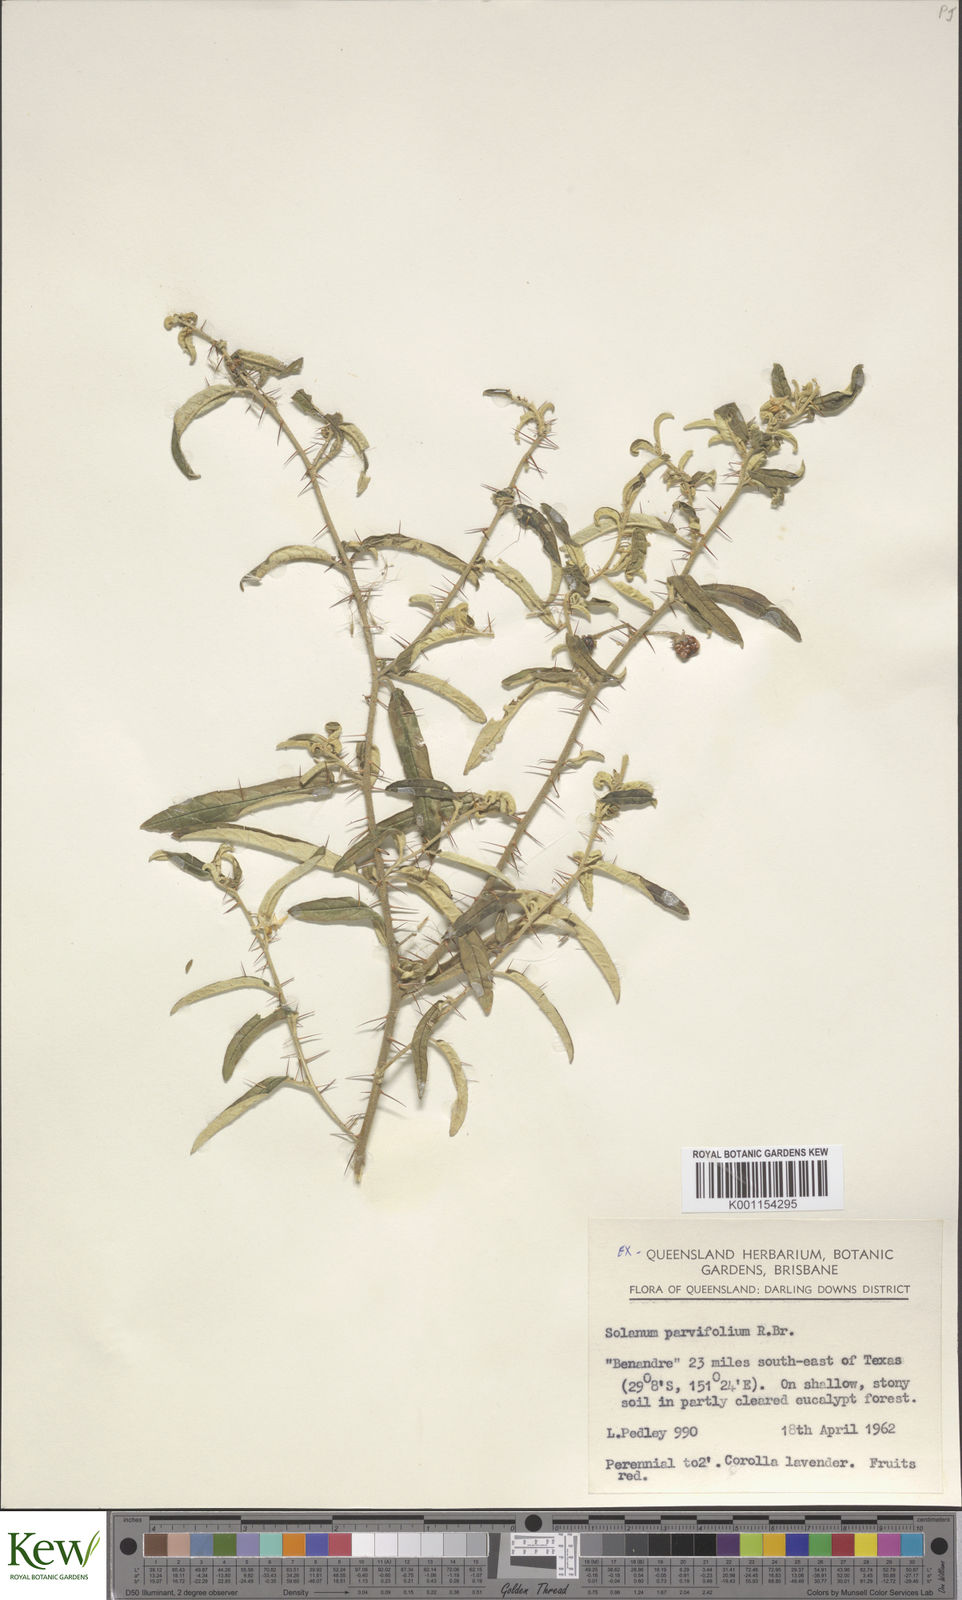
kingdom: Plantae
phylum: Tracheophyta
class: Magnoliopsida
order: Solanales
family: Solanaceae
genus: Solanum
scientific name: Solanum parvifolium
